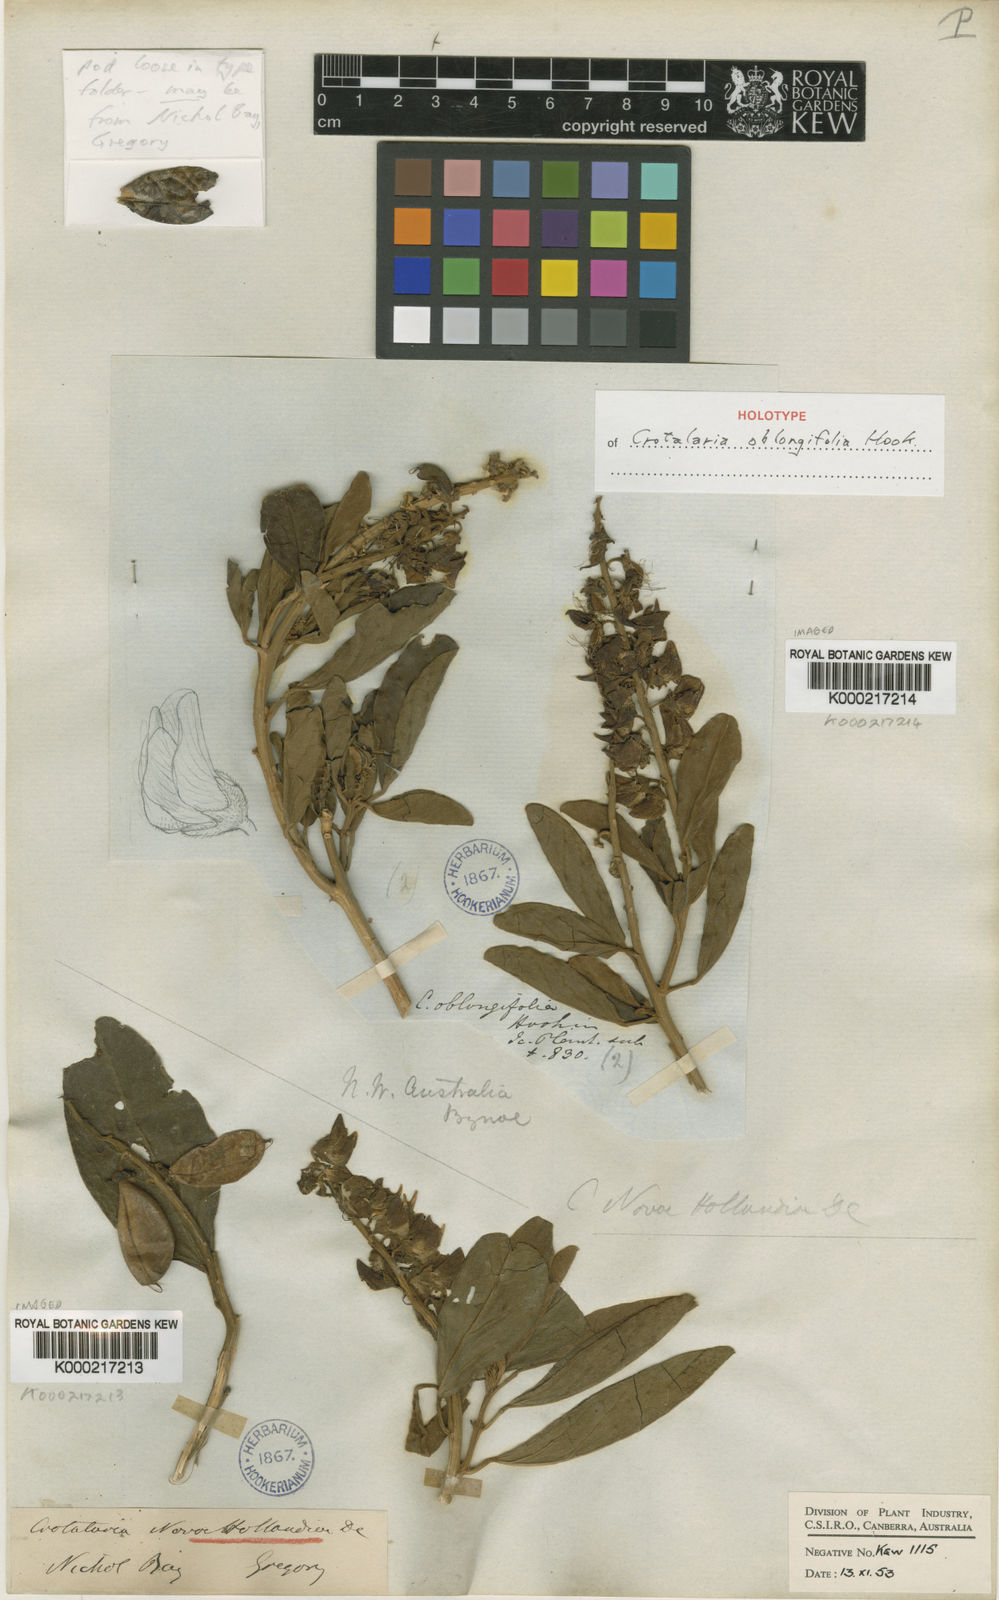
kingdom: Plantae
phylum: Tracheophyta
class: Magnoliopsida
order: Fabales
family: Fabaceae
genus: Crotalaria
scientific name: Crotalaria novae-hollandiae
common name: New holland rattlepod
